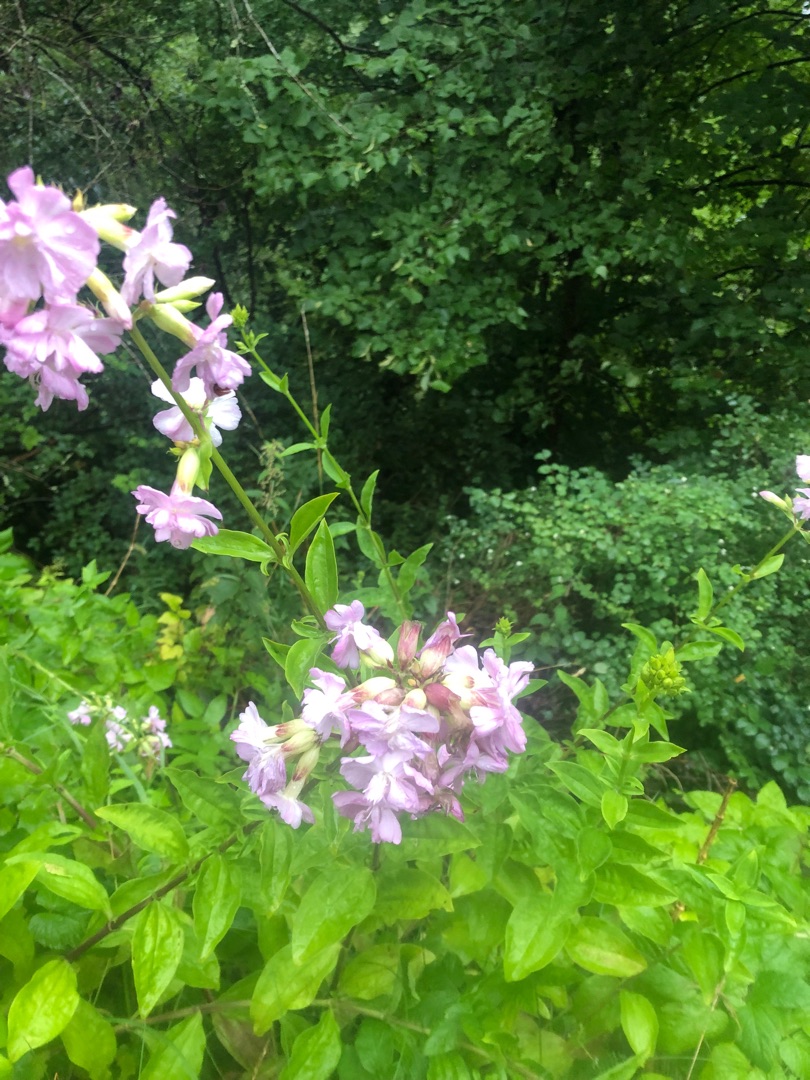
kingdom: Plantae
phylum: Tracheophyta
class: Magnoliopsida
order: Caryophyllales
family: Caryophyllaceae
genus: Saponaria
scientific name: Saponaria officinalis
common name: Sæbeurt
